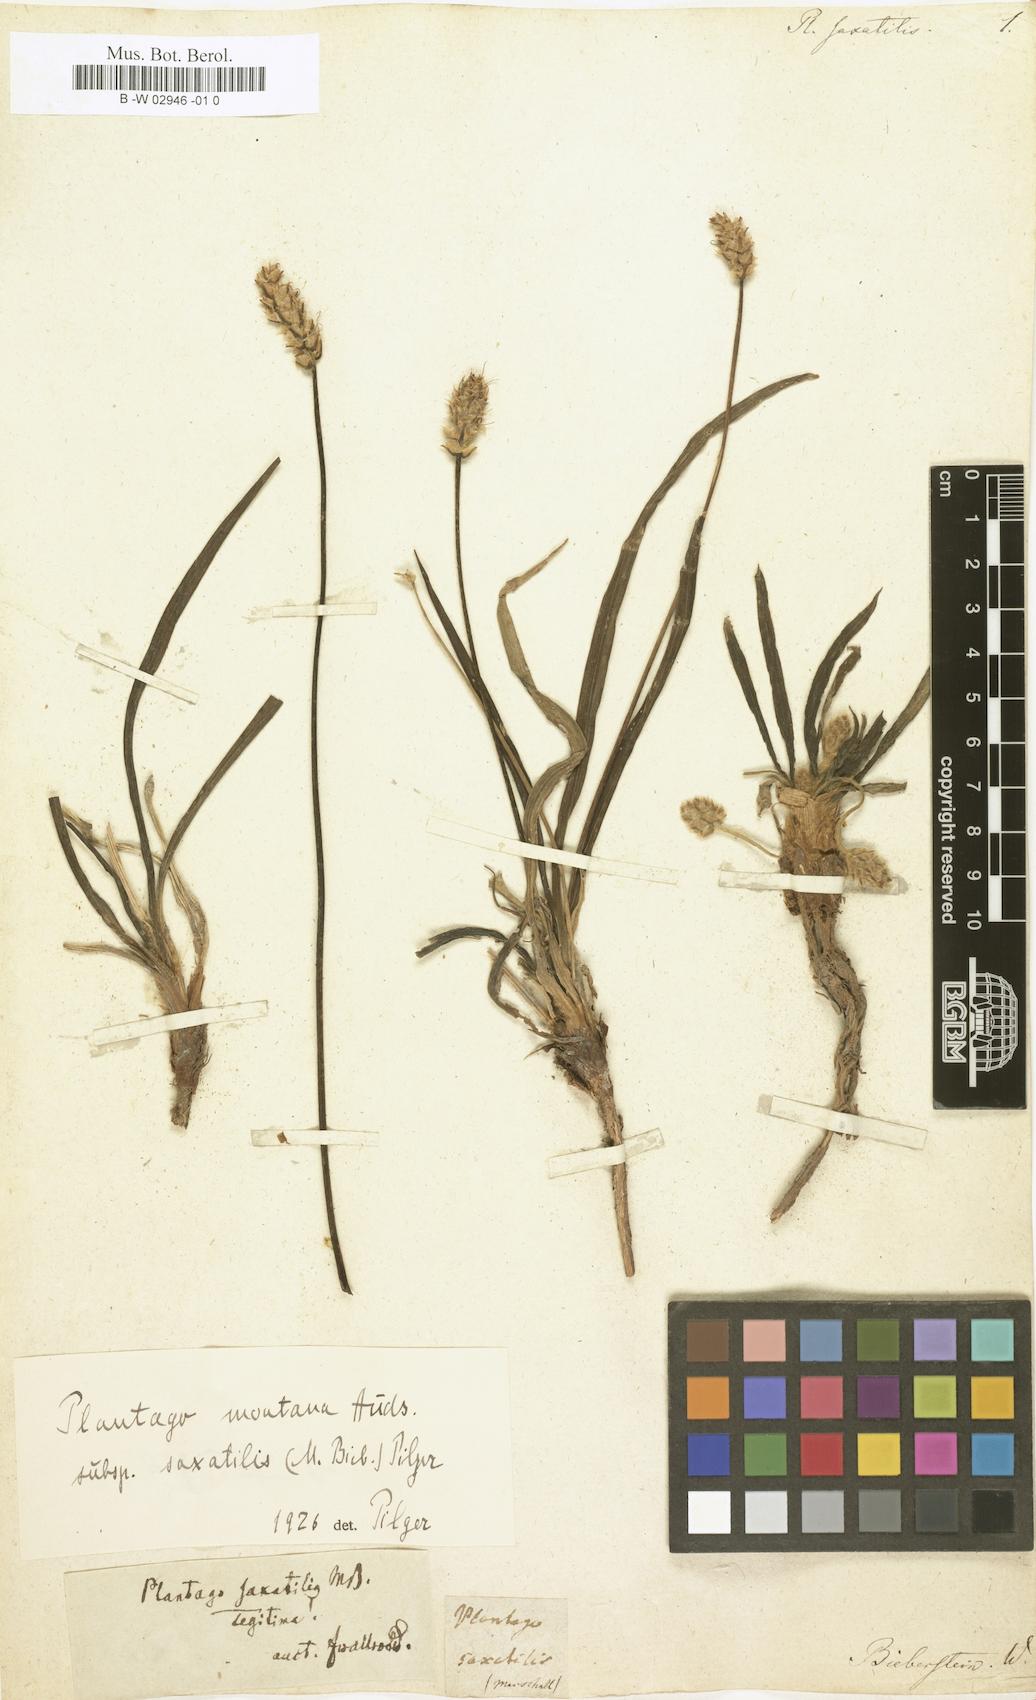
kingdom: Plantae
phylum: Tracheophyta
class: Magnoliopsida
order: Lamiales
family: Plantaginaceae
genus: Plantago
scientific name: Plantago atrata
